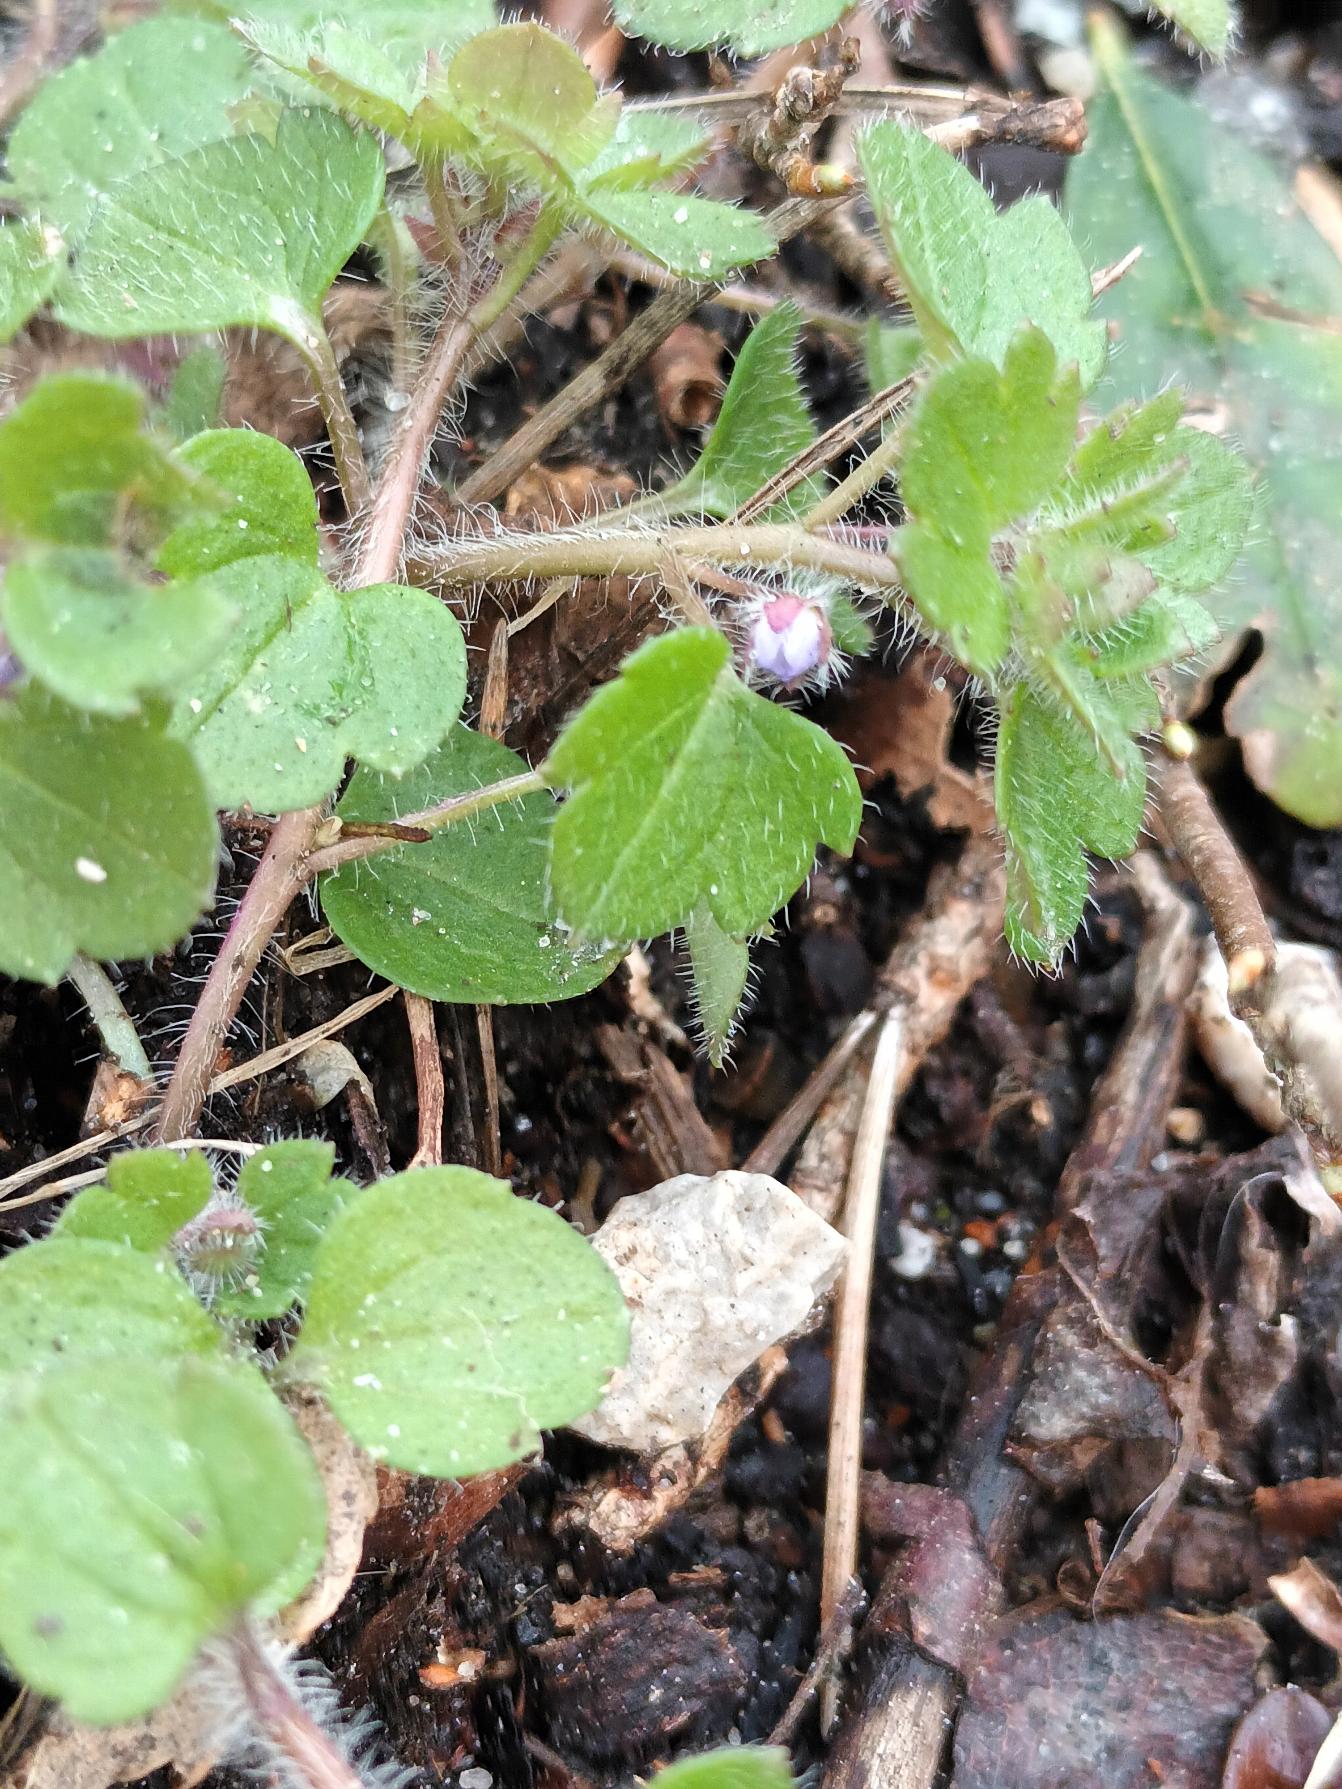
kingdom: Plantae
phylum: Tracheophyta
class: Magnoliopsida
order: Lamiales
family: Plantaginaceae
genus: Veronica
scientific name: Veronica sublobata
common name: Krat-ærenpris
